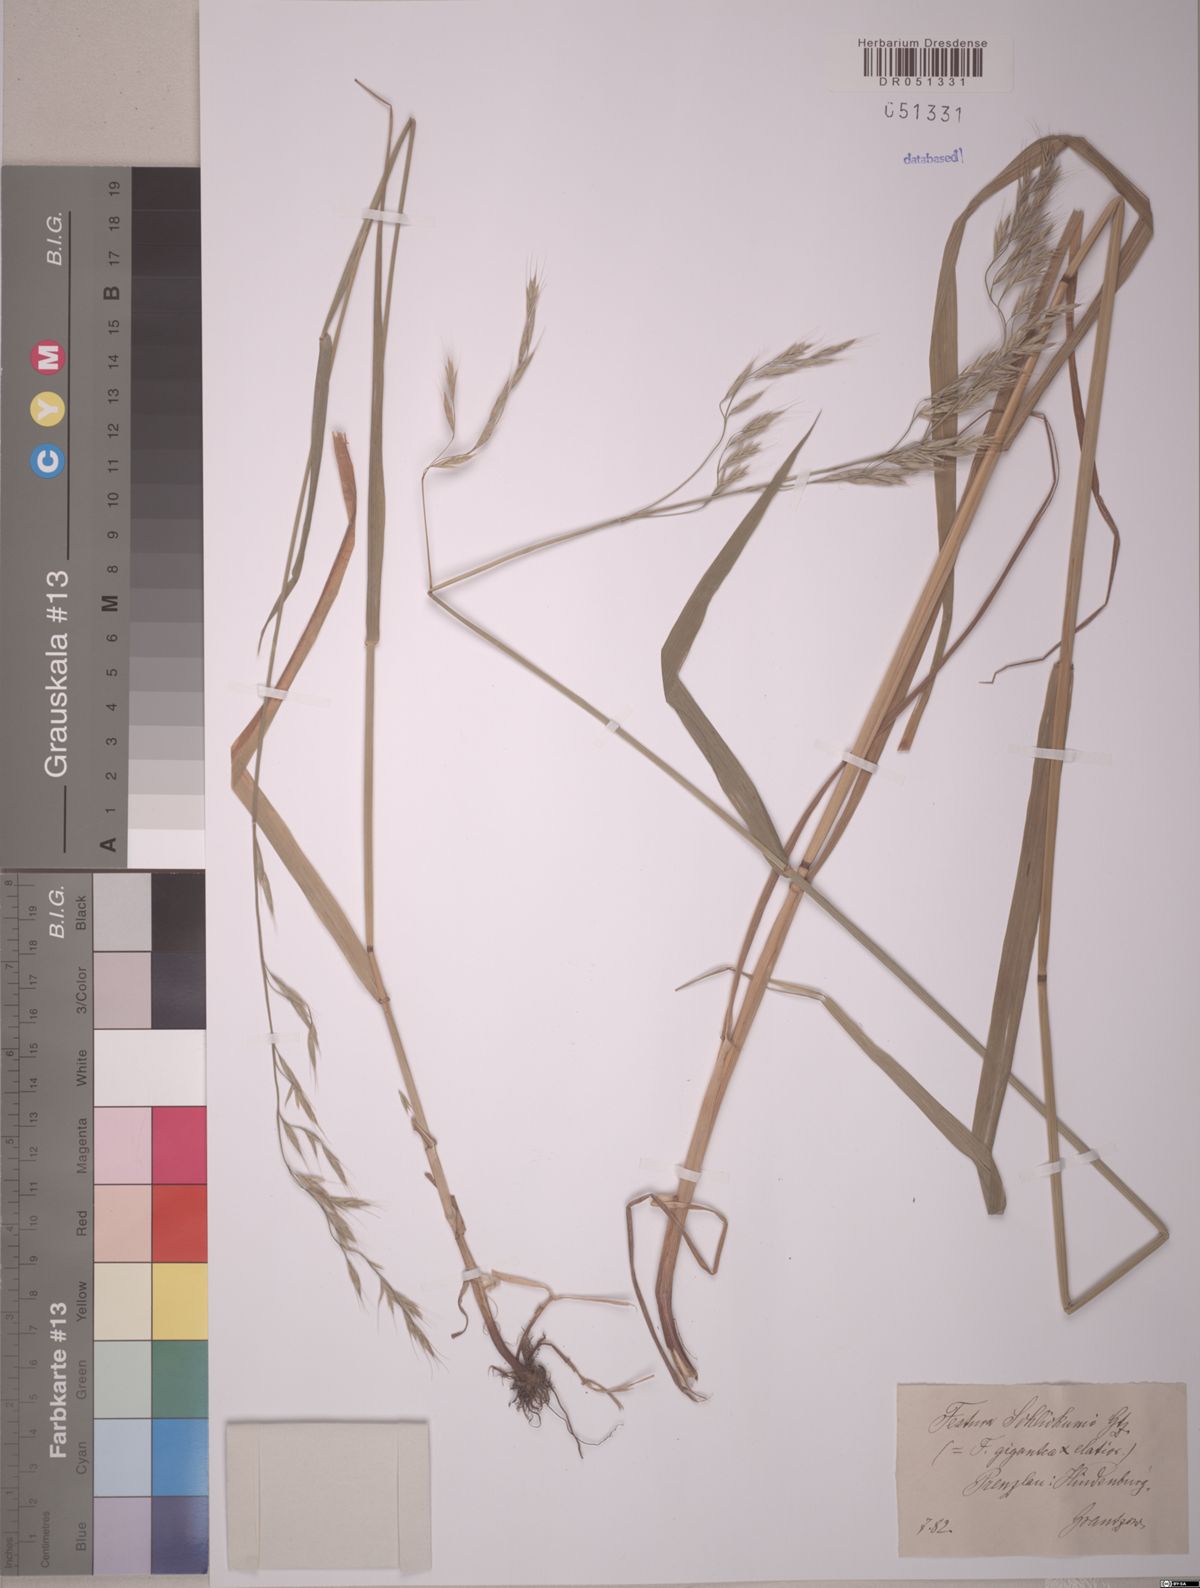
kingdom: Plantae
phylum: Tracheophyta
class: Liliopsida
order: Poales
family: Poaceae
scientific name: Poaceae
